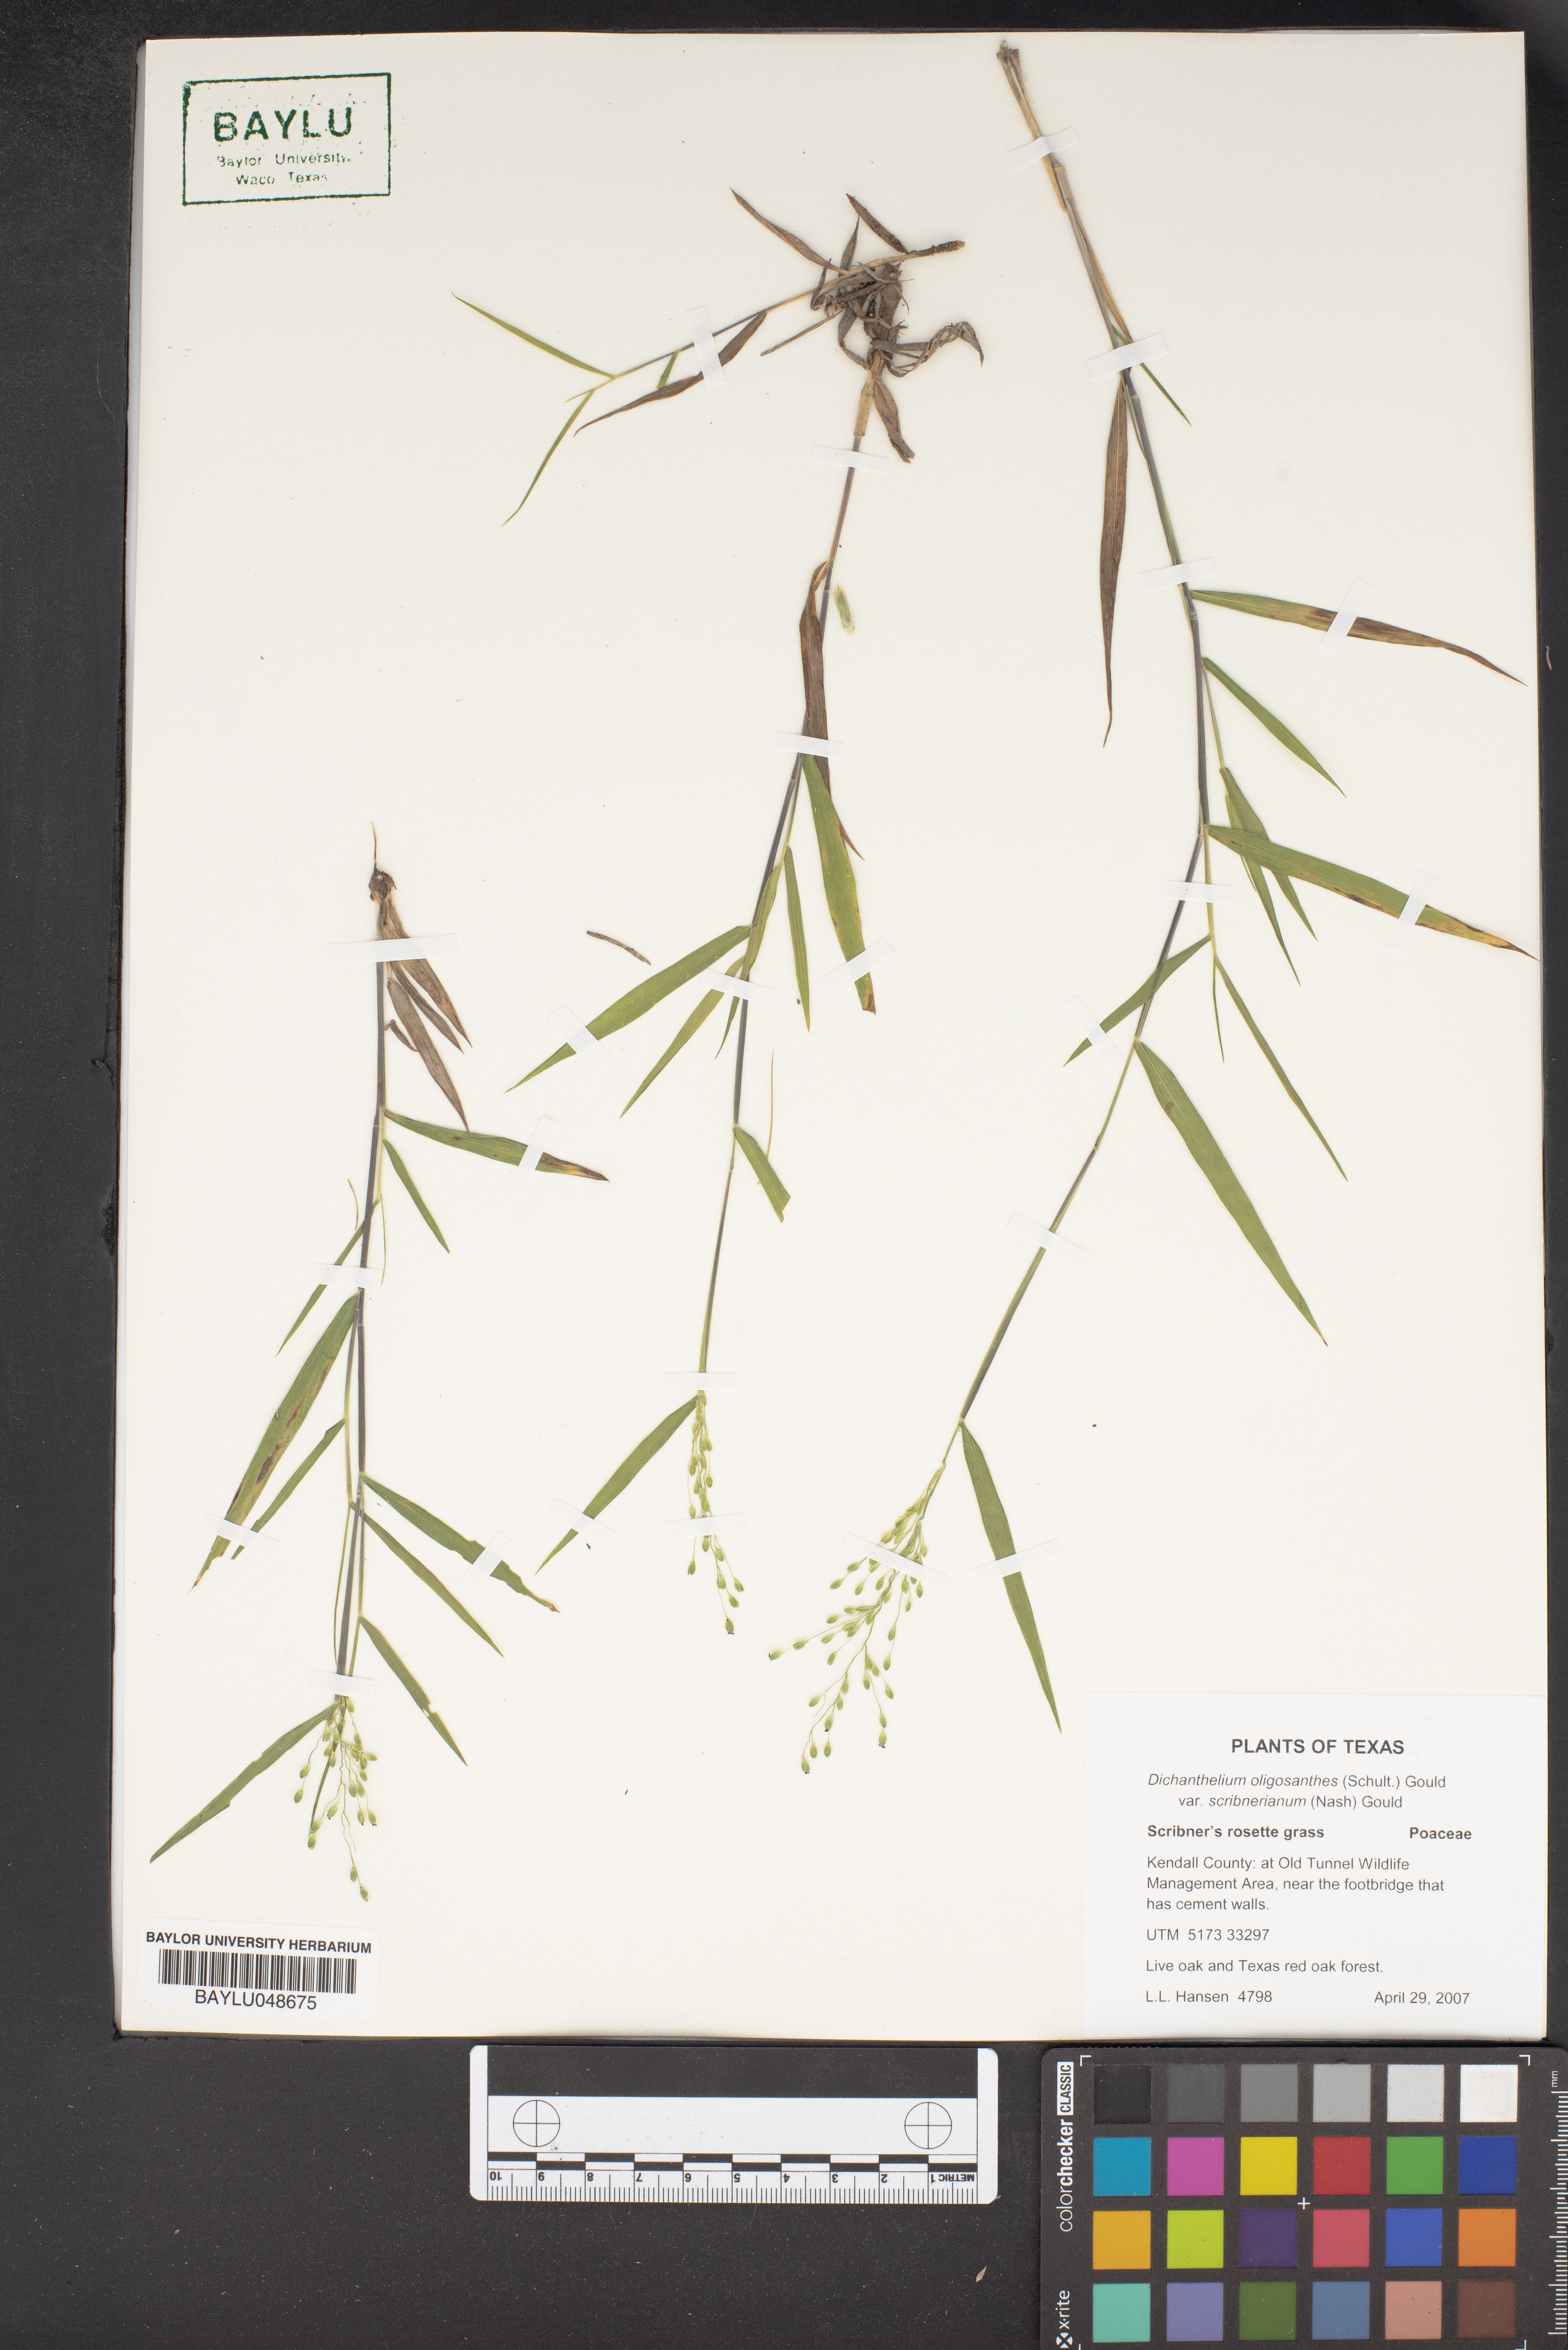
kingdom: Plantae
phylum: Tracheophyta
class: Liliopsida
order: Poales
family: Poaceae
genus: Dichanthelium
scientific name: Dichanthelium scribnerianum
